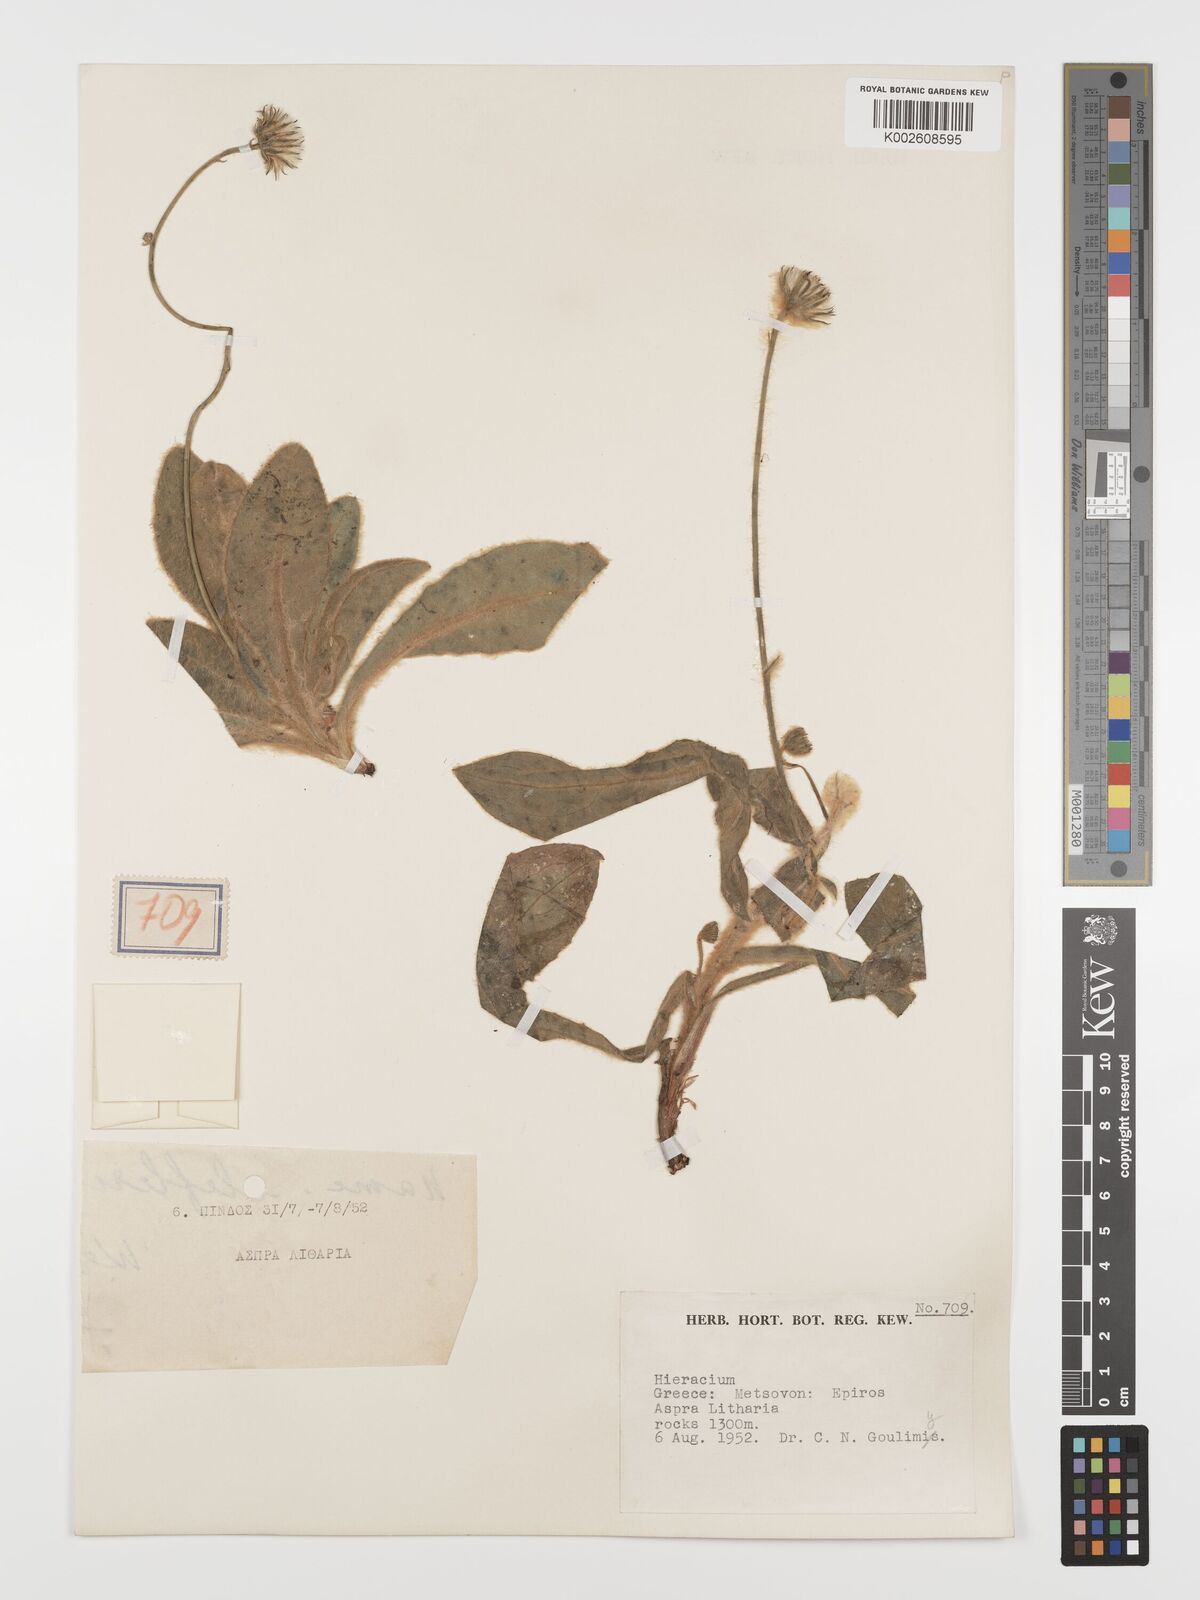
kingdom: Plantae
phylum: Tracheophyta
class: Magnoliopsida
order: Asterales
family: Asteraceae
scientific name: Asteraceae
